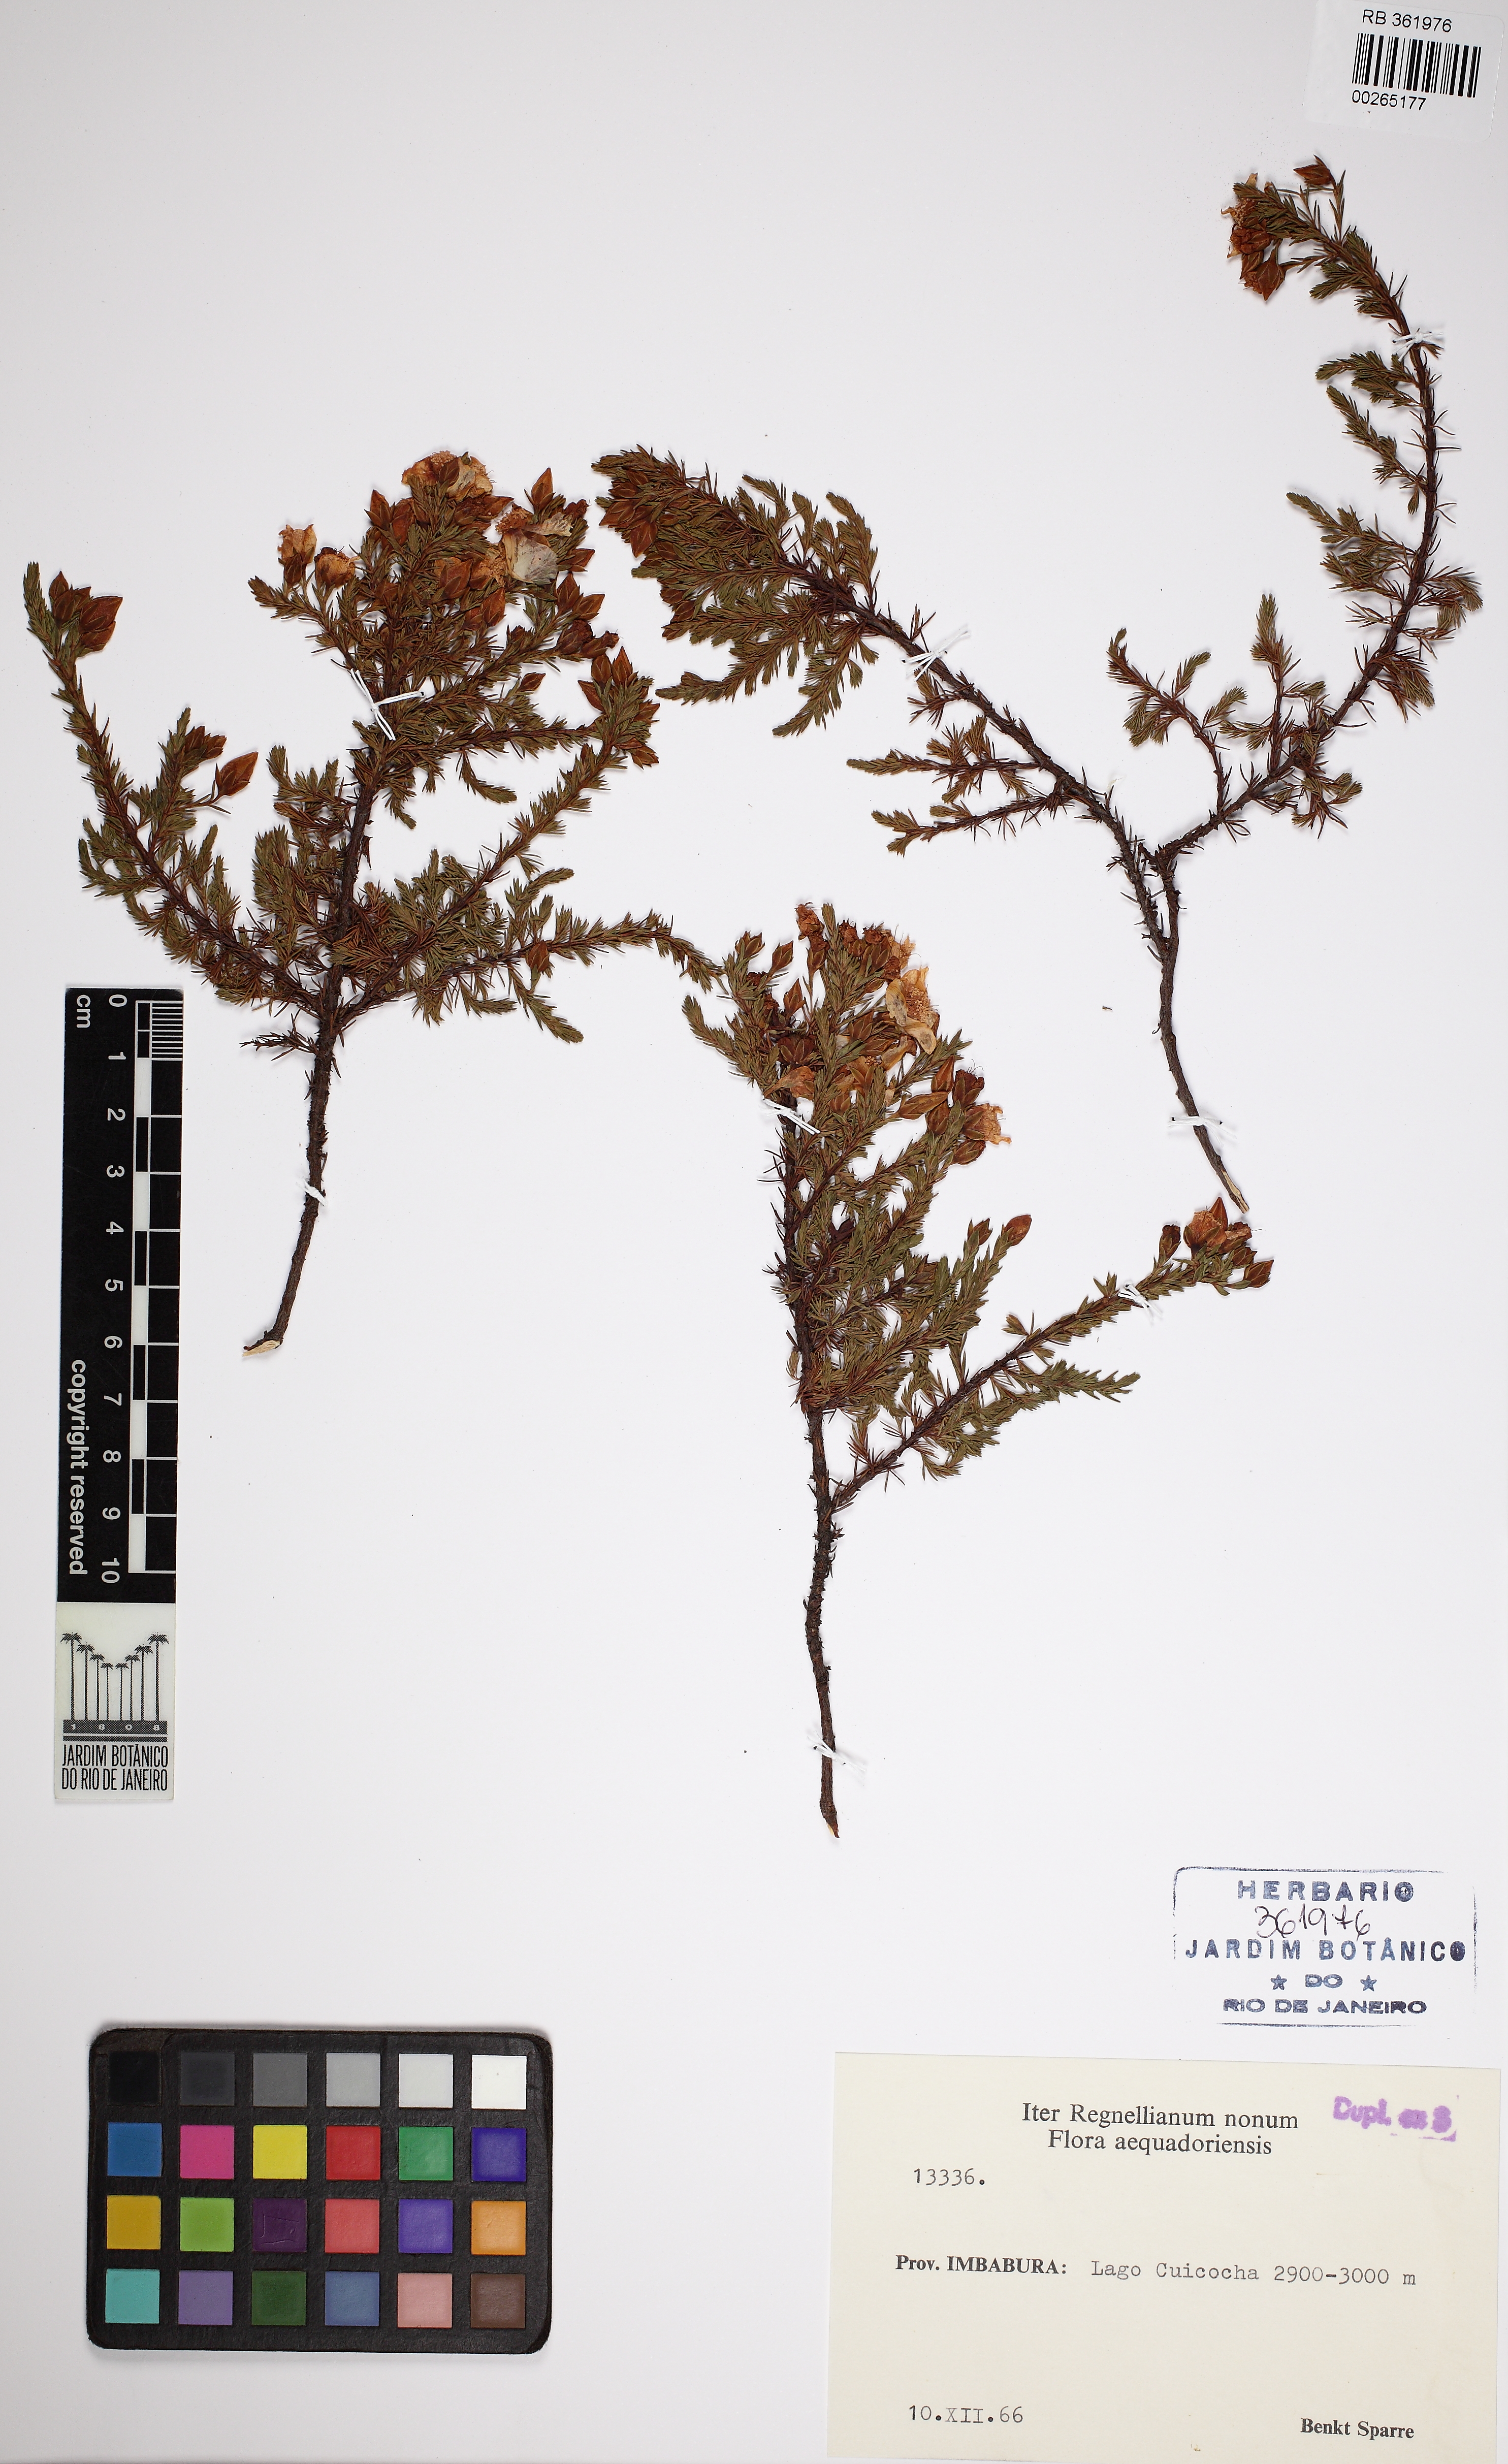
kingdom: Plantae
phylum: Tracheophyta
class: Magnoliopsida
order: Malpighiales
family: Hypericaceae
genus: Hypericum
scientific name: Hypericum aciculare
